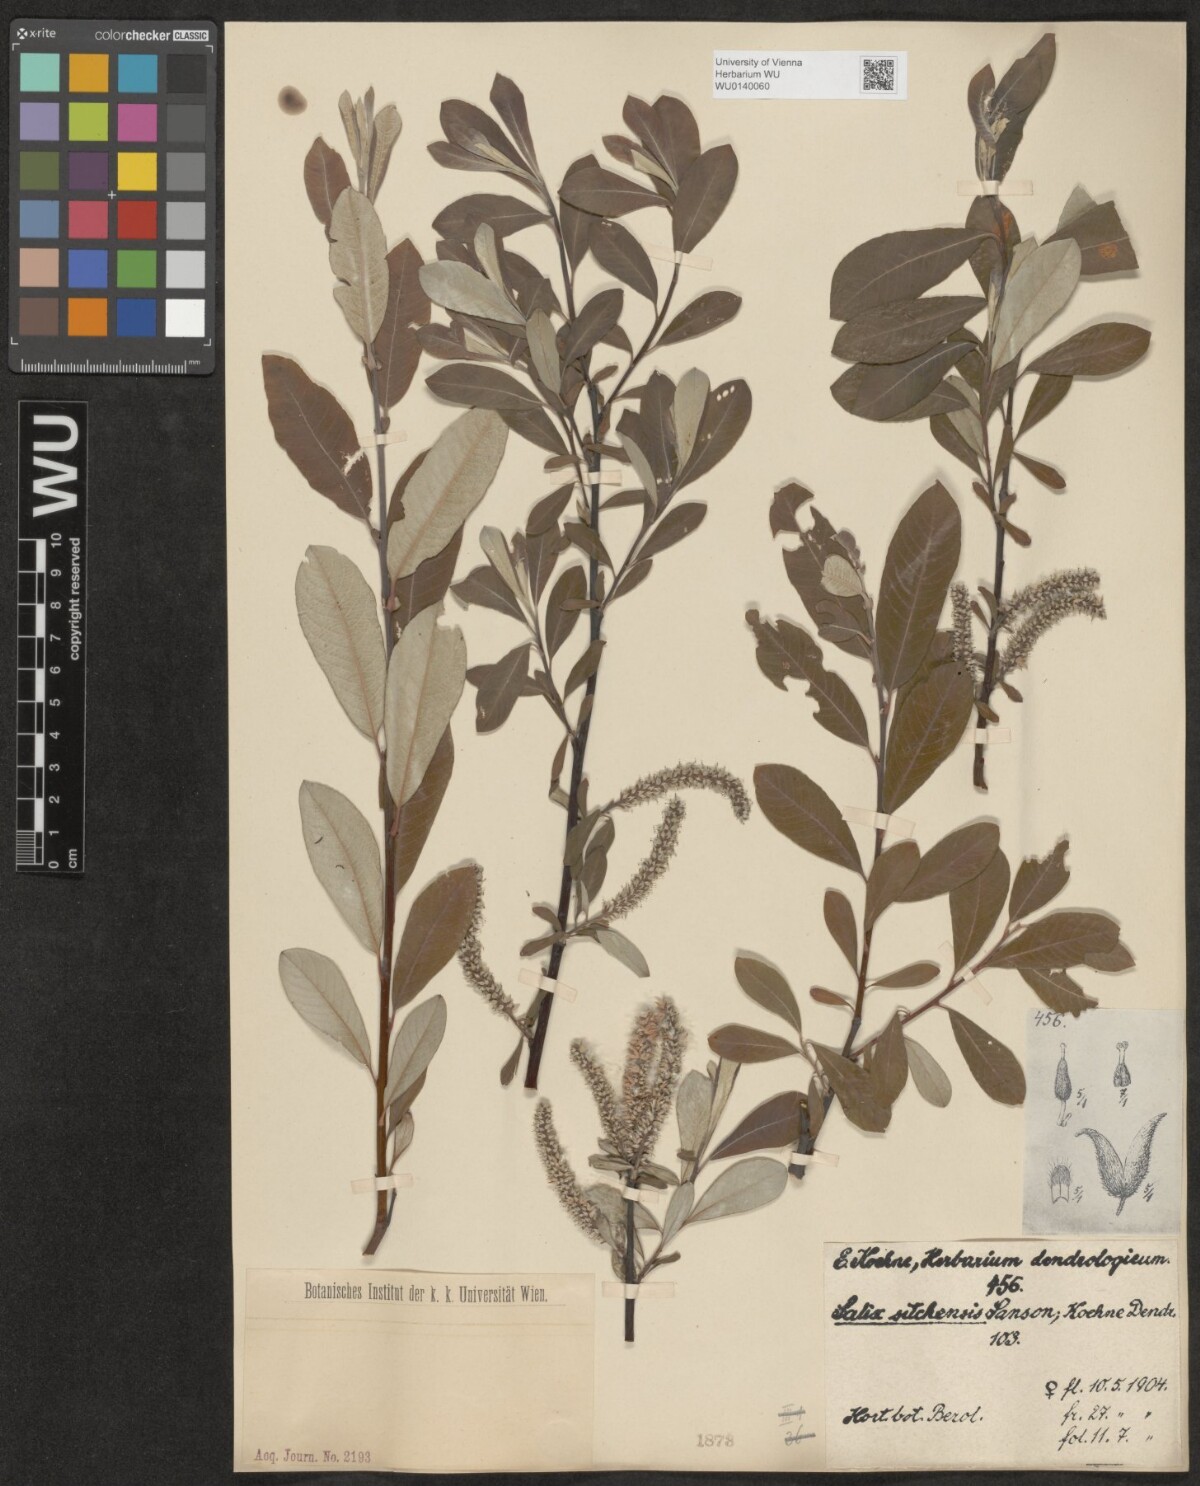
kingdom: Plantae
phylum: Tracheophyta
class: Magnoliopsida
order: Malpighiales
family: Salicaceae
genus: Salix
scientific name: Salix sitchensis
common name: Sitka willow
